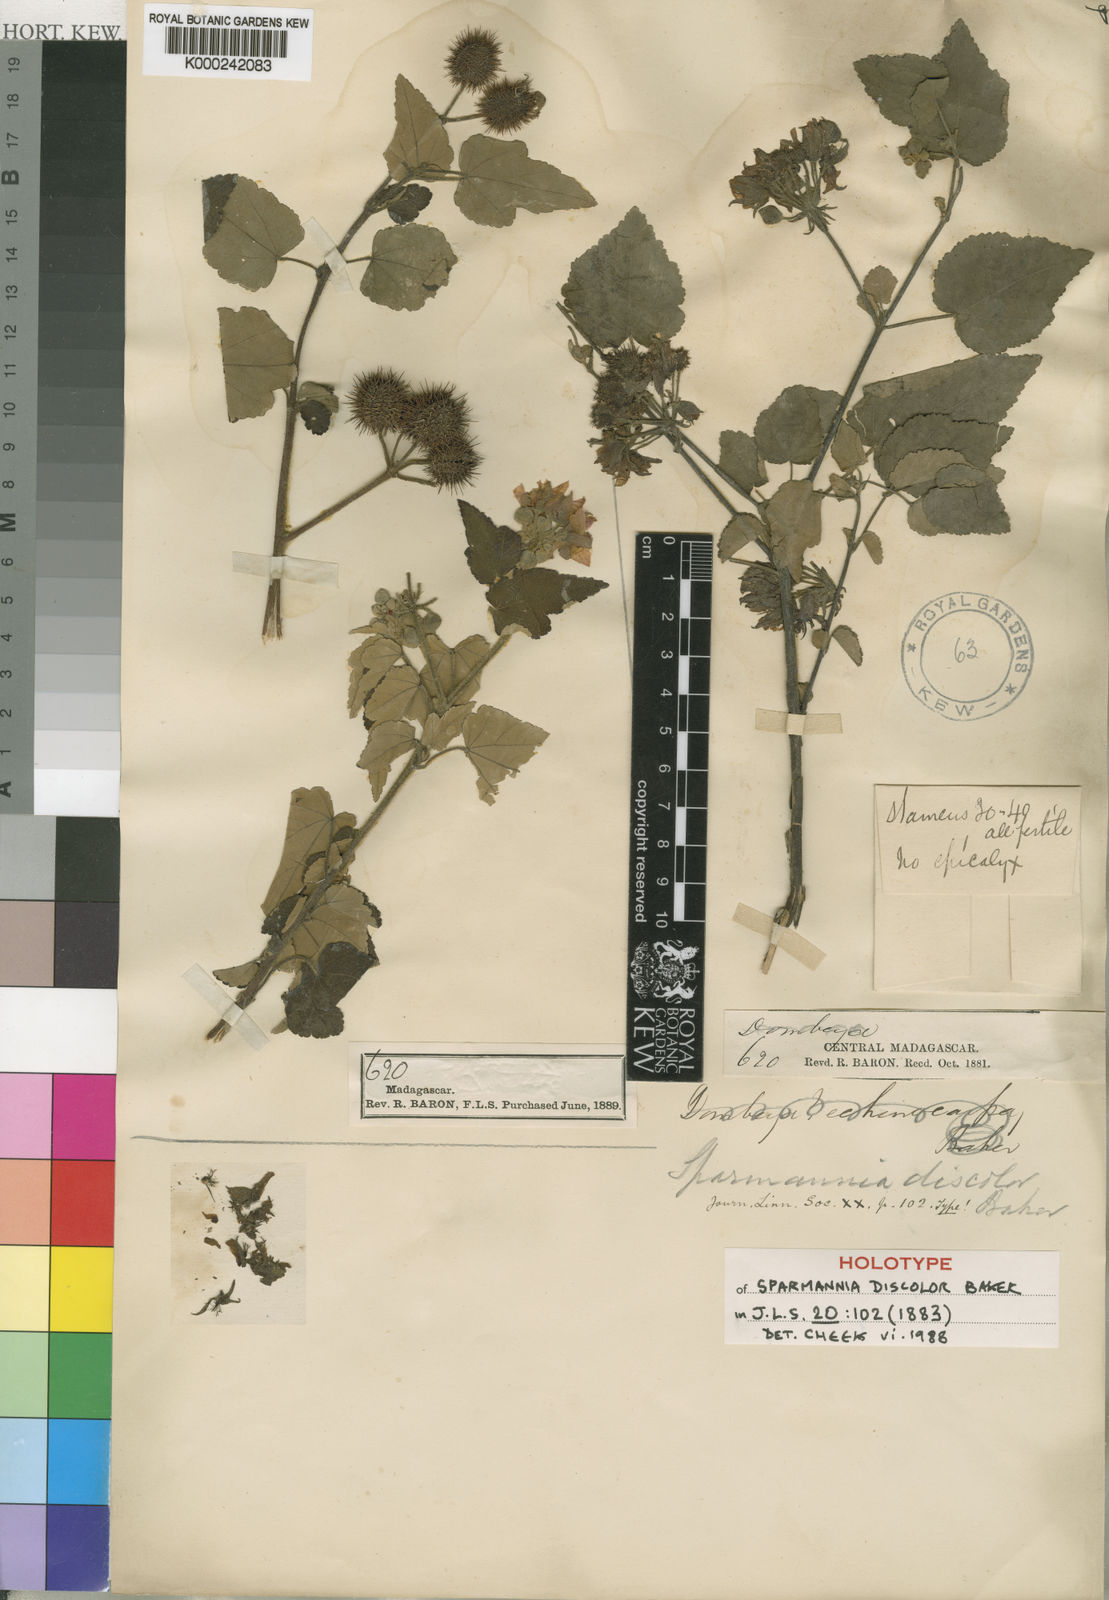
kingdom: Plantae
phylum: Tracheophyta
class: Magnoliopsida
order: Malvales
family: Malvaceae
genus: Sparrmannia
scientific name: Sparrmannia discolor
